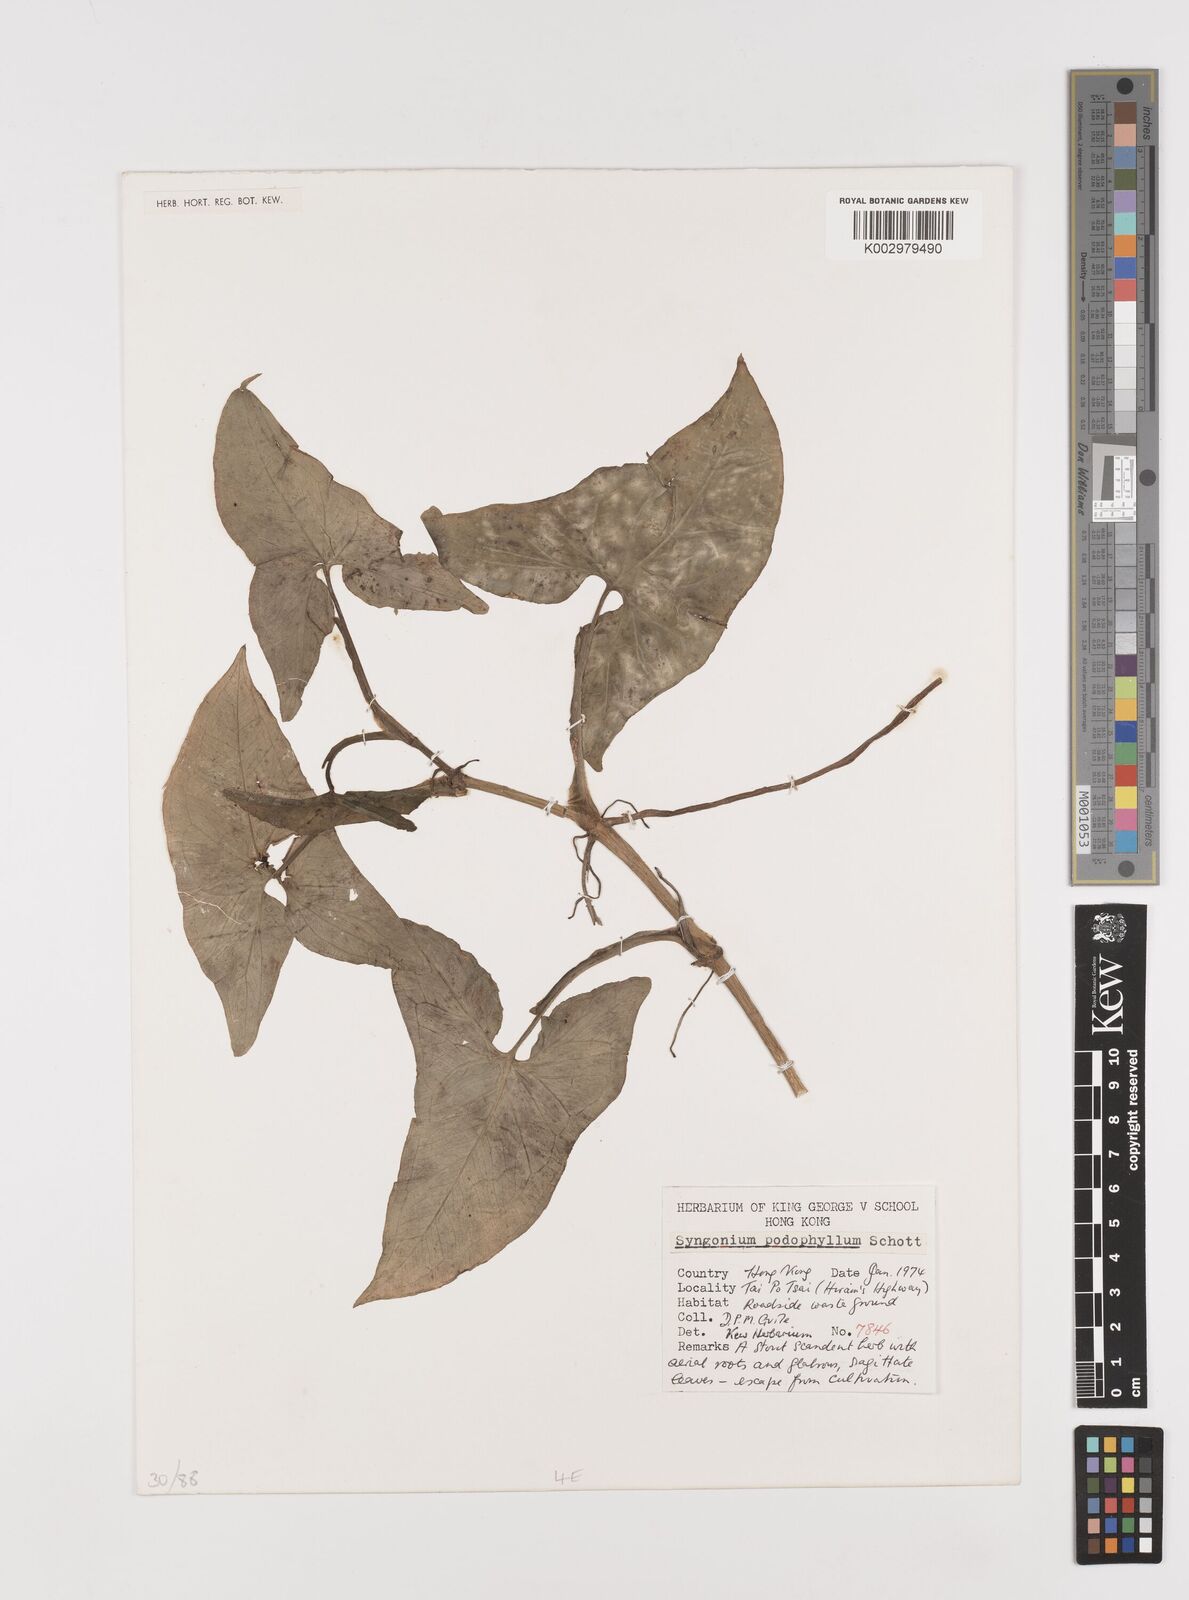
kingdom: Plantae
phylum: Tracheophyta
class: Liliopsida
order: Alismatales
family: Araceae
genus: Syngonium
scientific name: Syngonium podophyllum
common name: American evergreen
